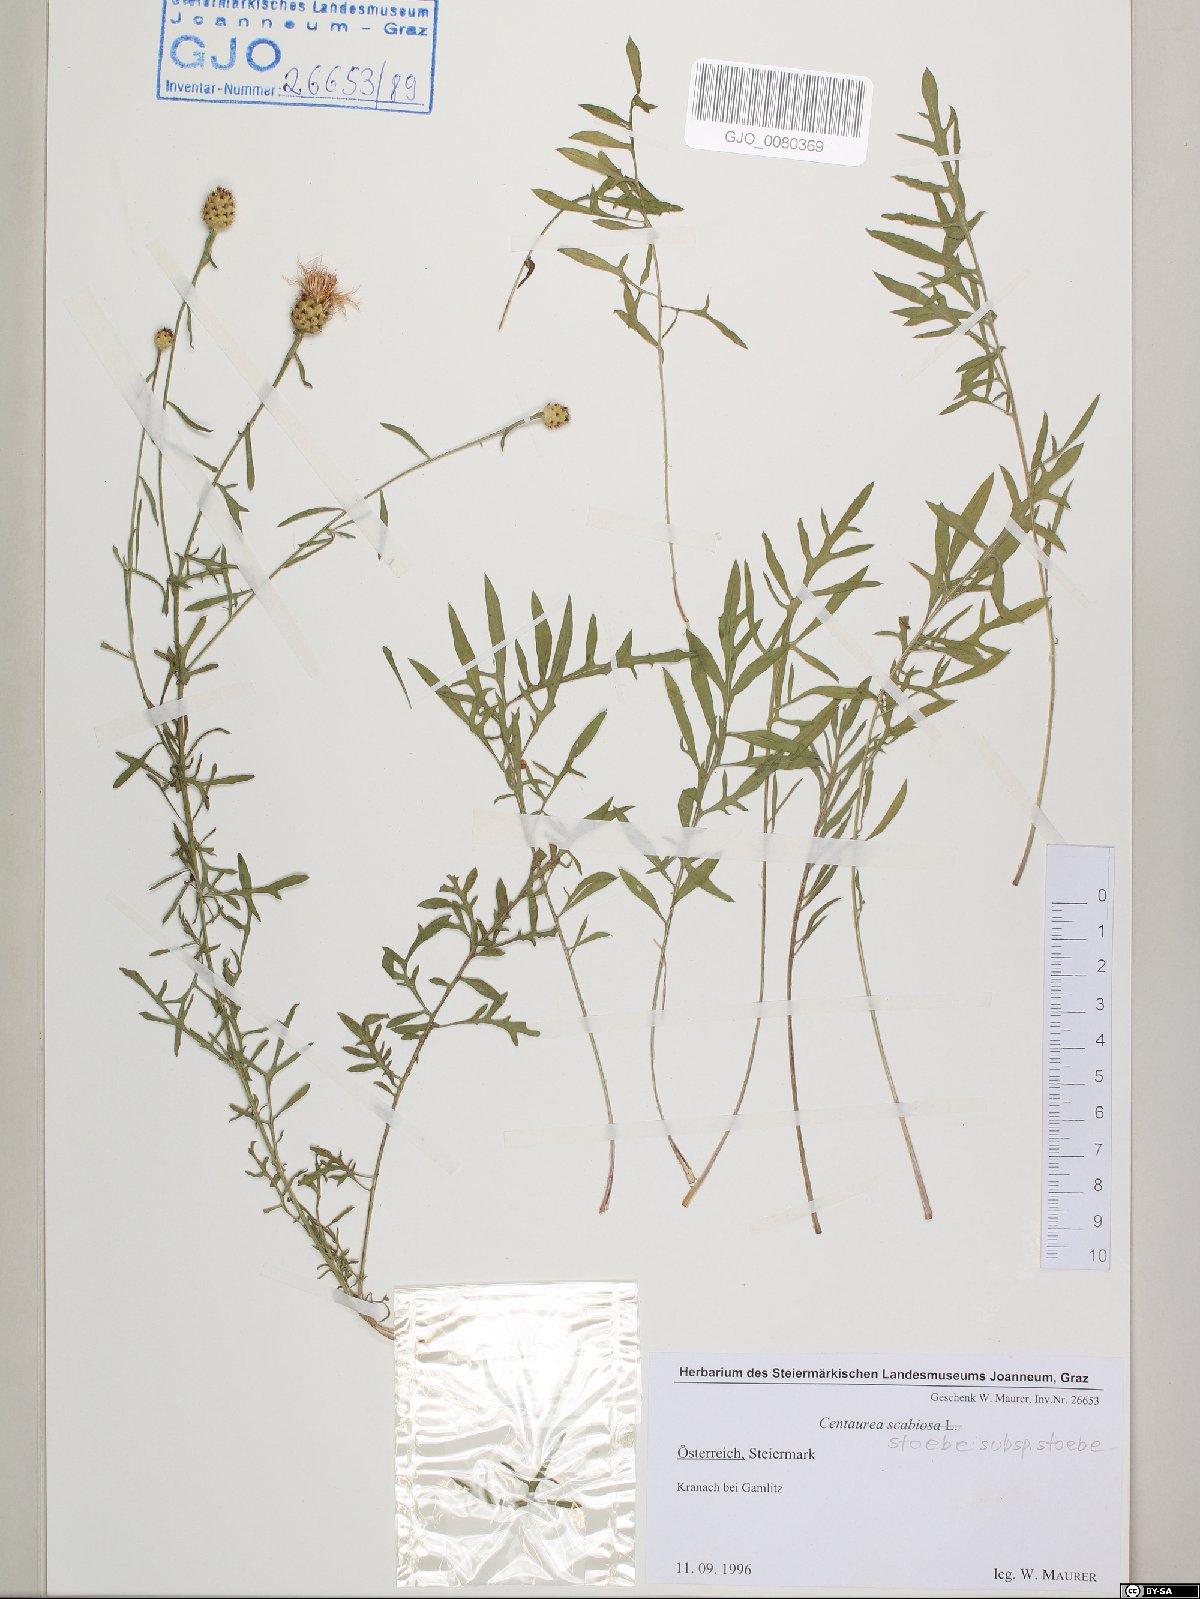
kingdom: Plantae
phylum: Tracheophyta
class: Magnoliopsida
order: Asterales
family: Asteraceae
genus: Centaurea
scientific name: Centaurea stoebe
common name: Spotted knapweed
